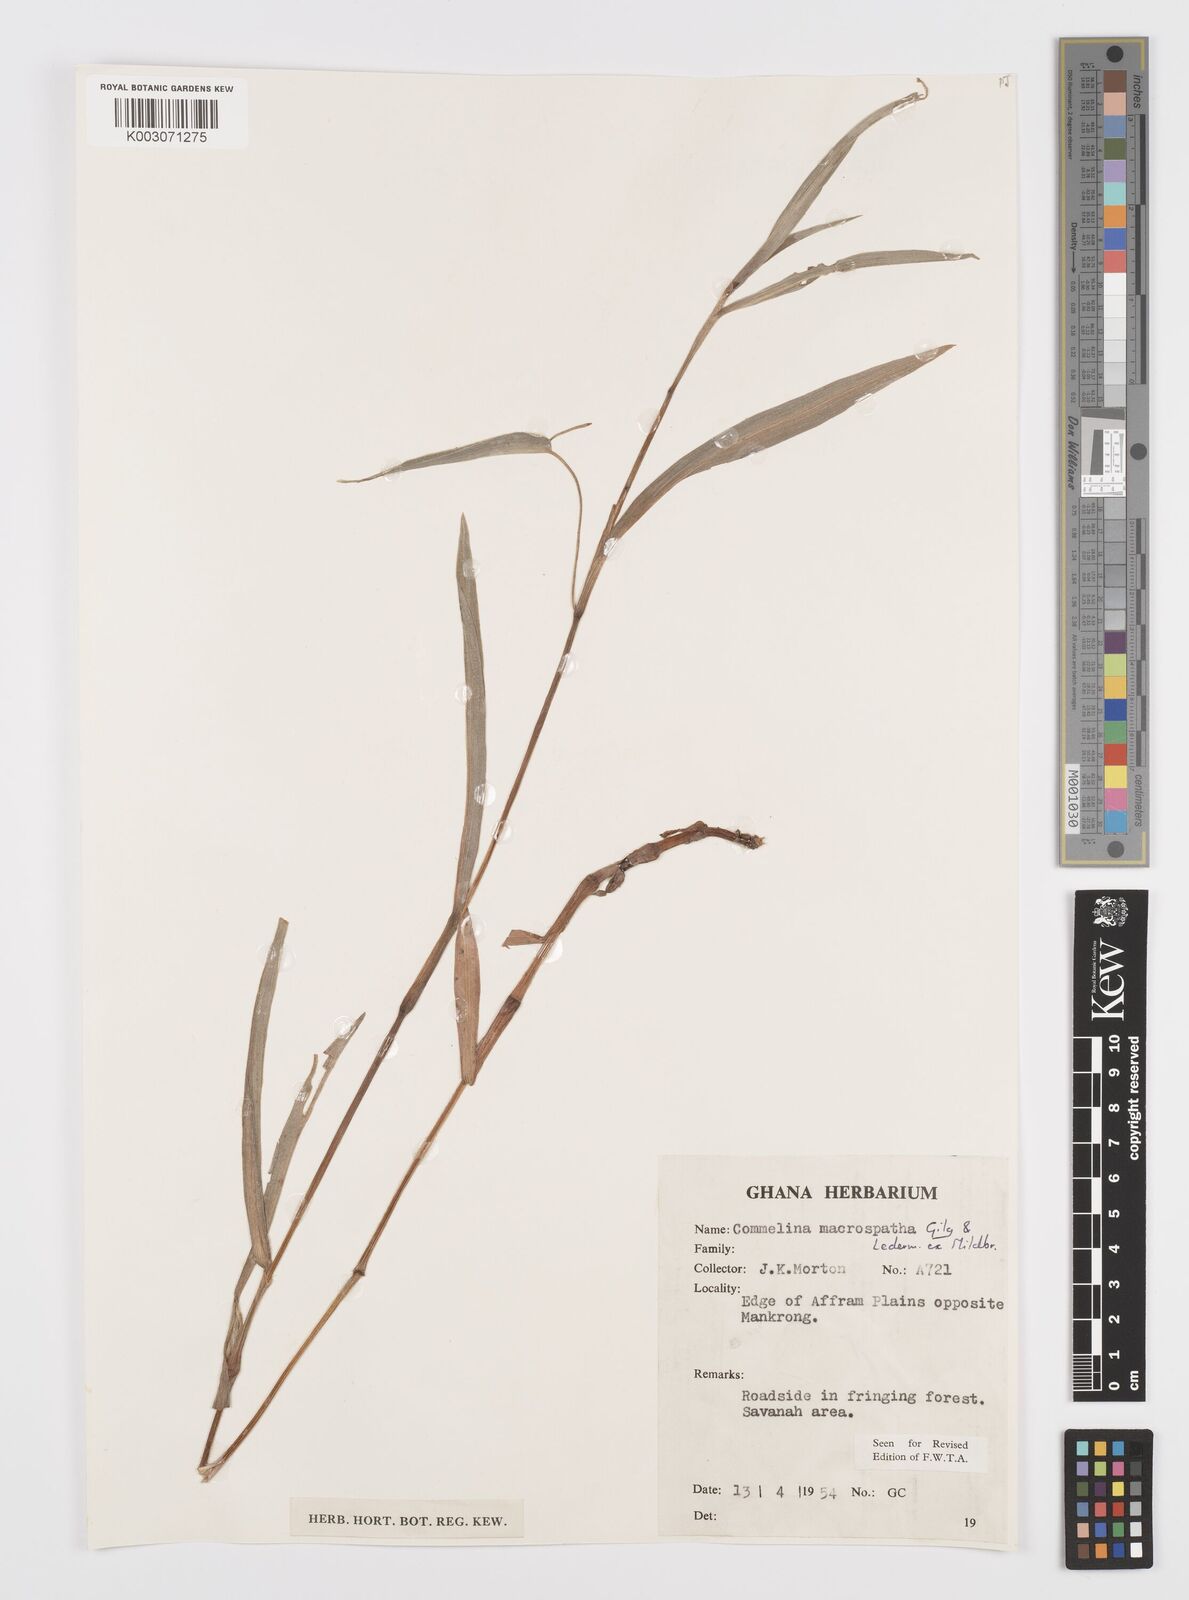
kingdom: Plantae
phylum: Tracheophyta
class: Liliopsida
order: Commelinales
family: Commelinaceae
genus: Commelina
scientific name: Commelina macrospatha
